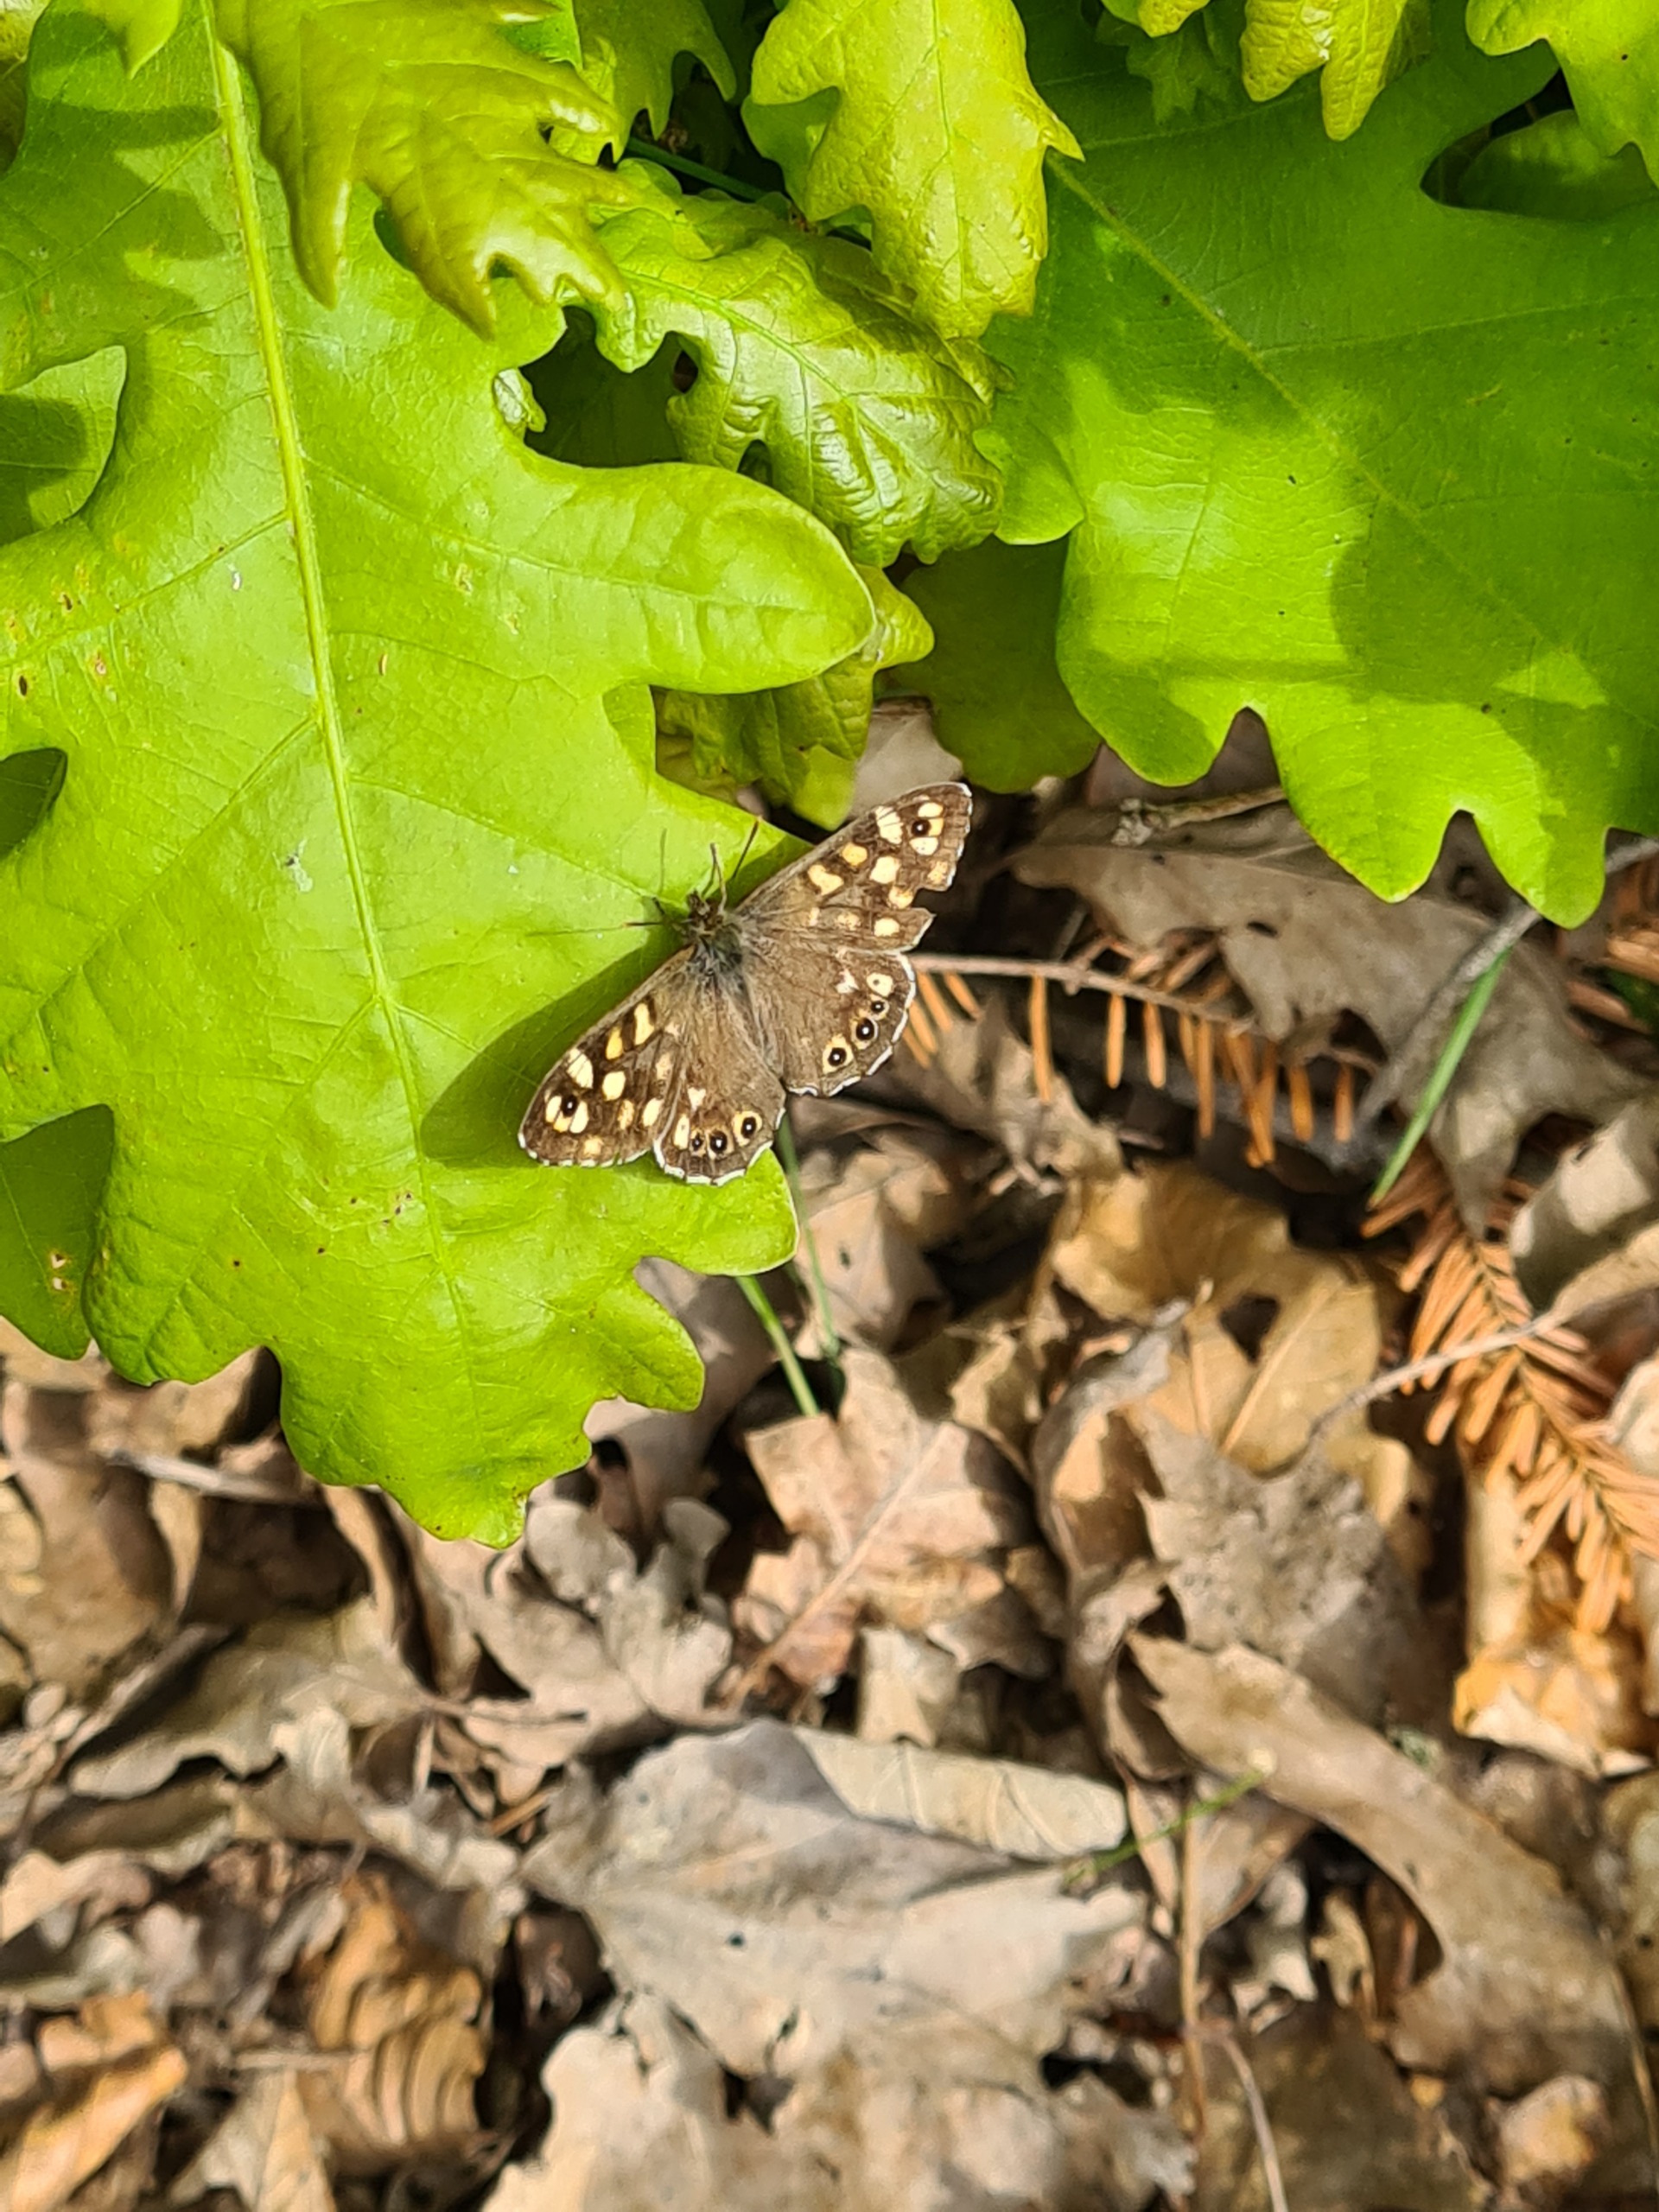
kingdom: Animalia
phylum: Arthropoda
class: Insecta
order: Lepidoptera
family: Nymphalidae
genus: Pararge
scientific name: Pararge aegeria
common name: Skovrandøje
